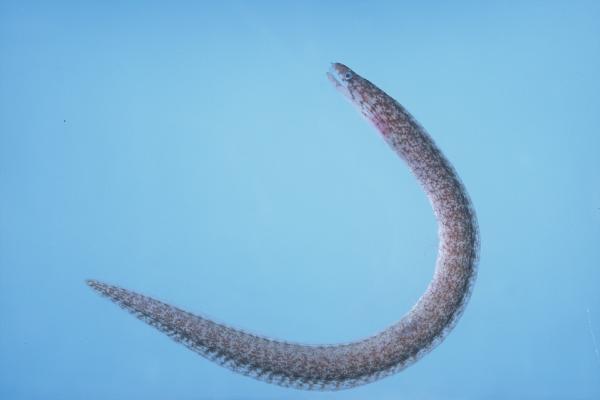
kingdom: Animalia
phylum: Chordata
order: Anguilliformes
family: Muraenidae
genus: Gymnothorax
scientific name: Gymnothorax chilospilus
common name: Lipspot moray
